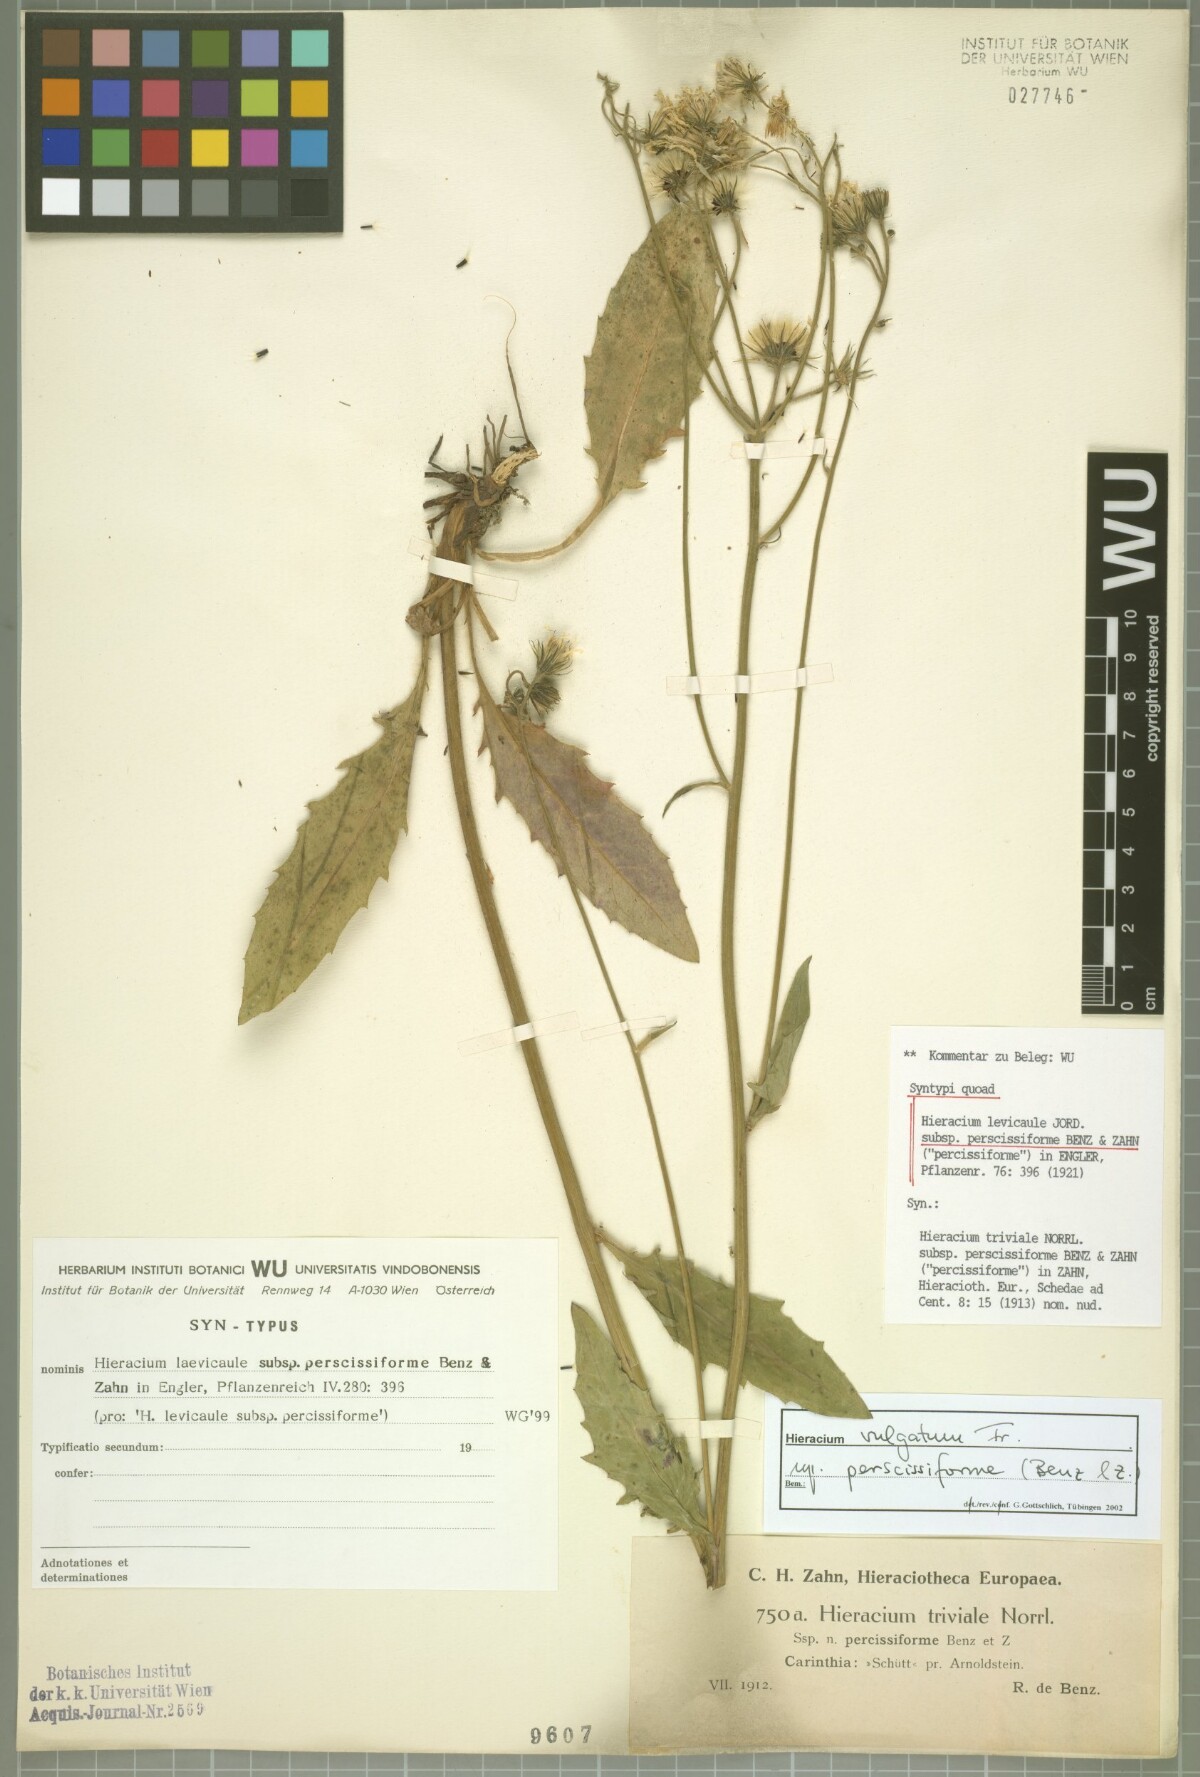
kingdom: Plantae
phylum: Tracheophyta
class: Magnoliopsida
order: Asterales
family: Asteraceae
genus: Hieracium
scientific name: Hieracium levicaule
